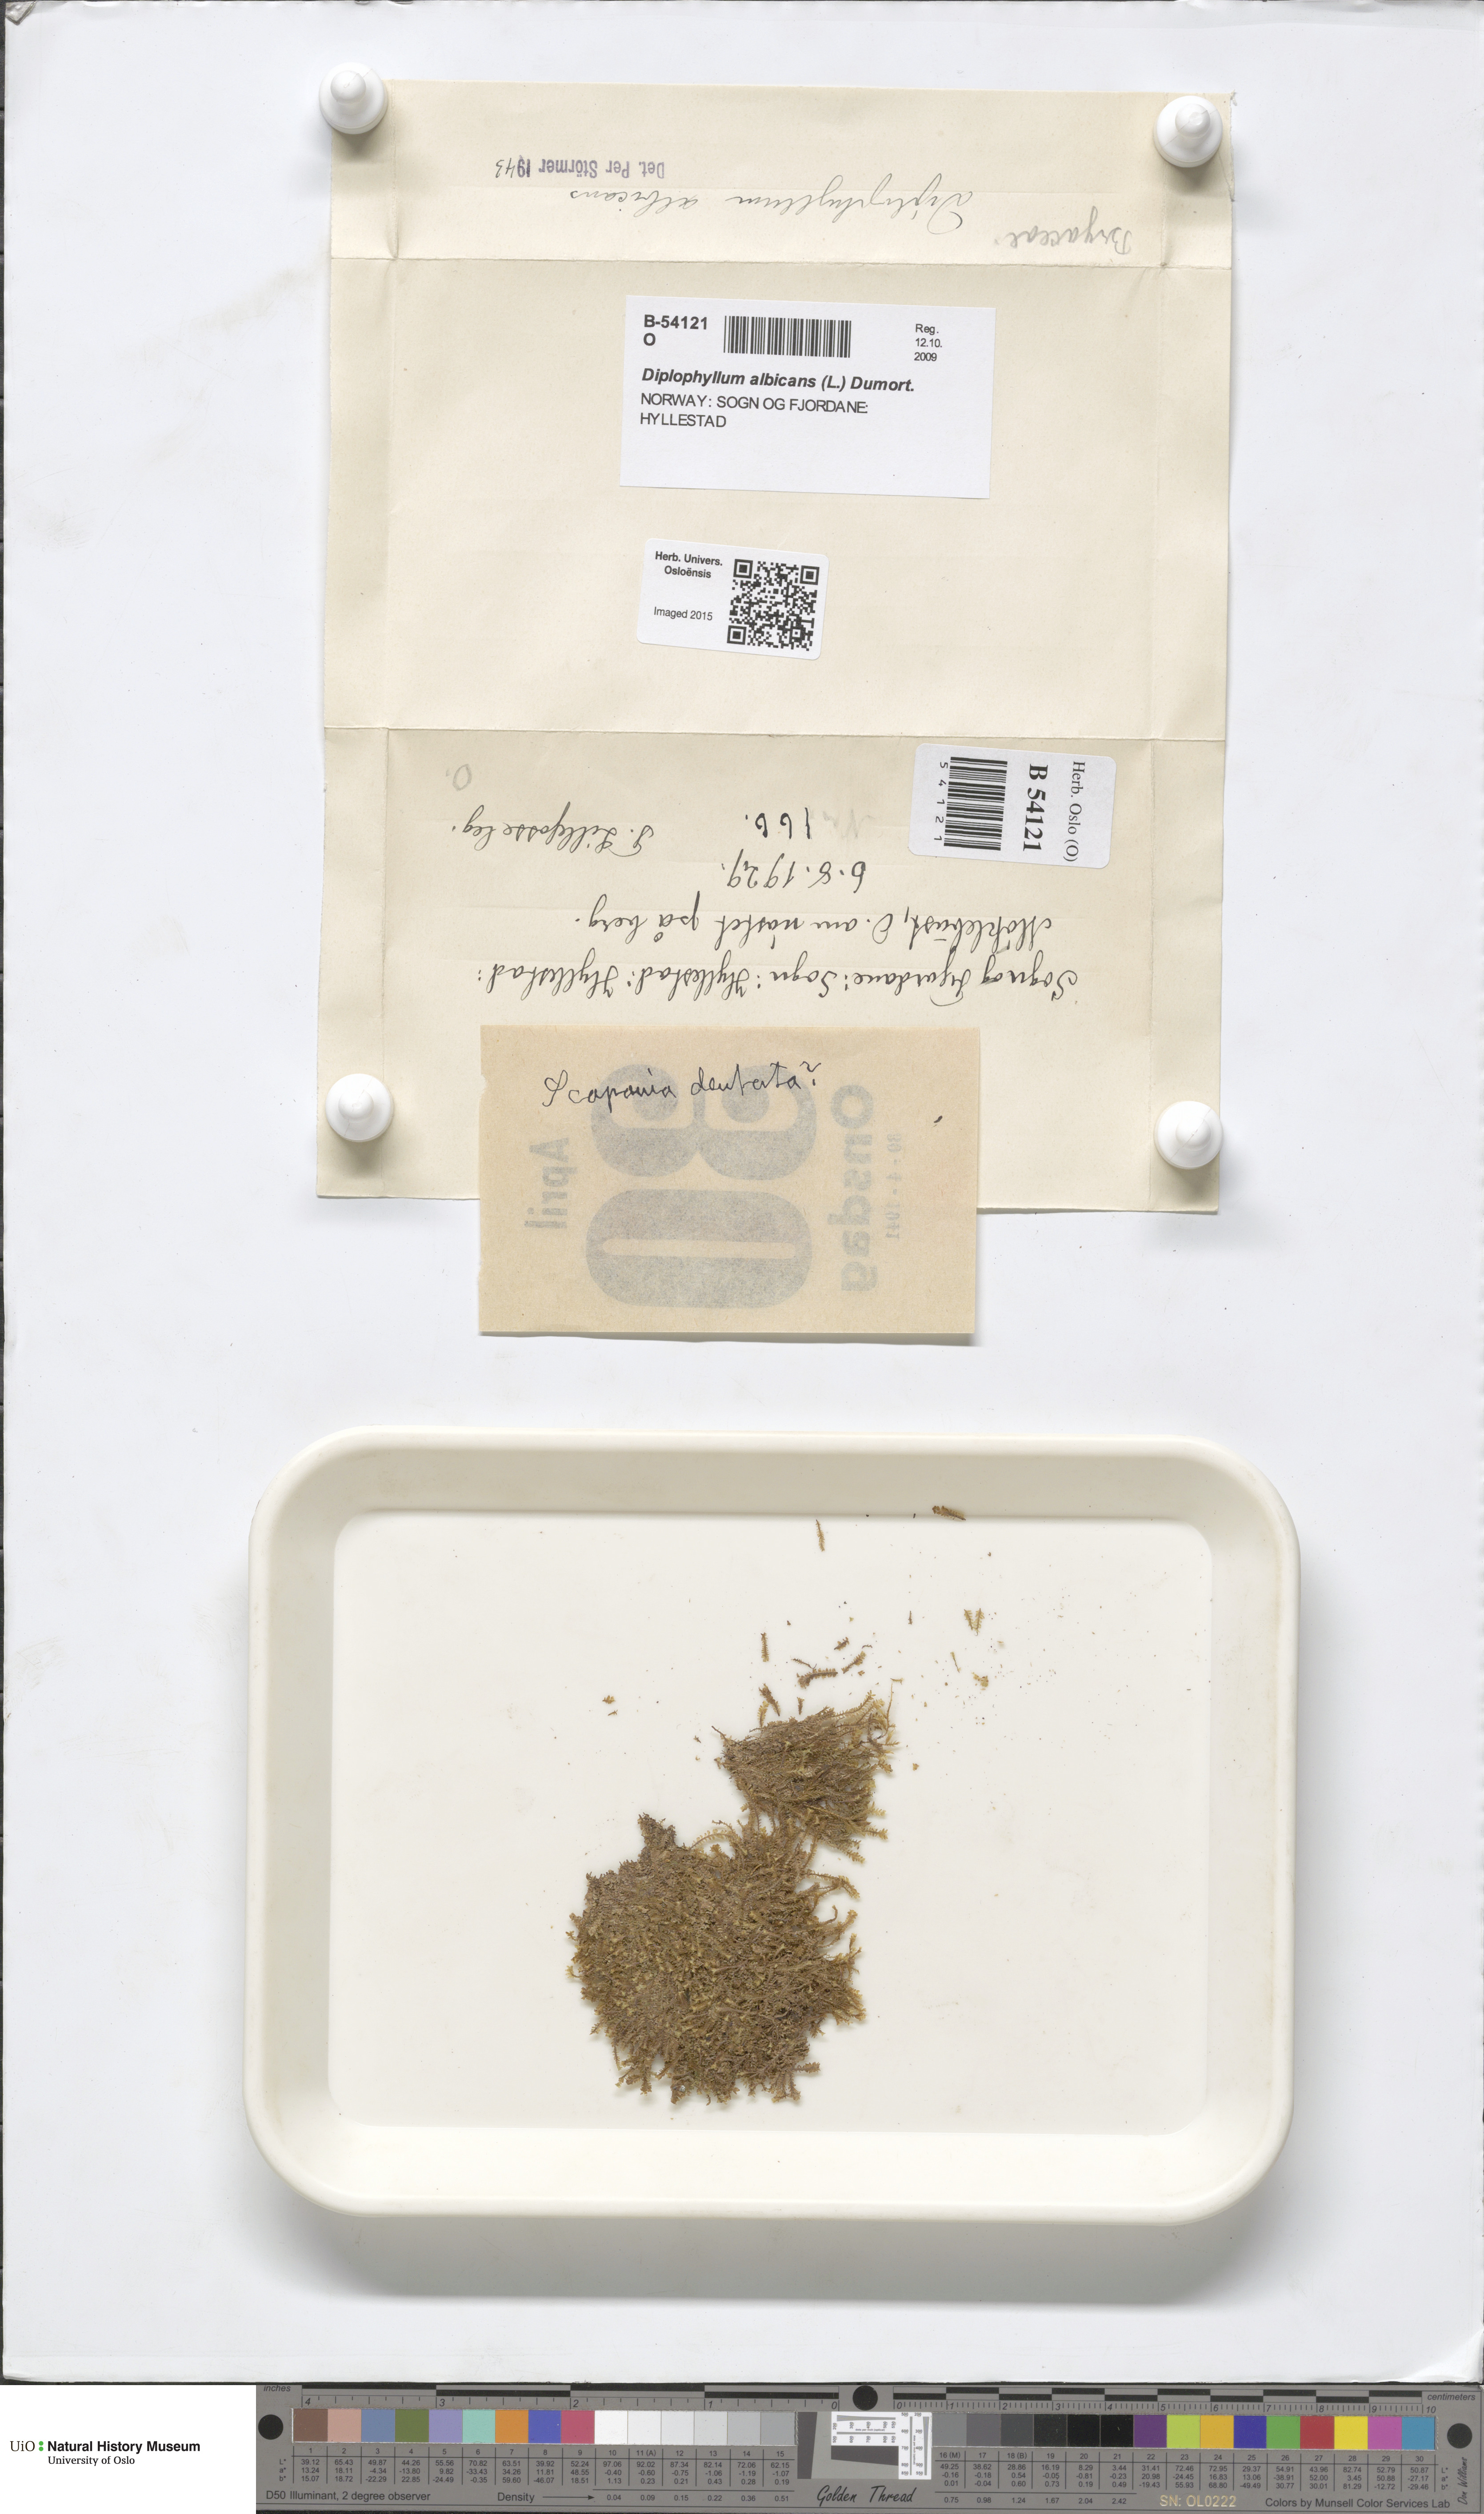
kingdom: Plantae
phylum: Marchantiophyta
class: Jungermanniopsida
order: Jungermanniales
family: Scapaniaceae
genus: Diplophyllum
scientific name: Diplophyllum albicans
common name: White earwort
